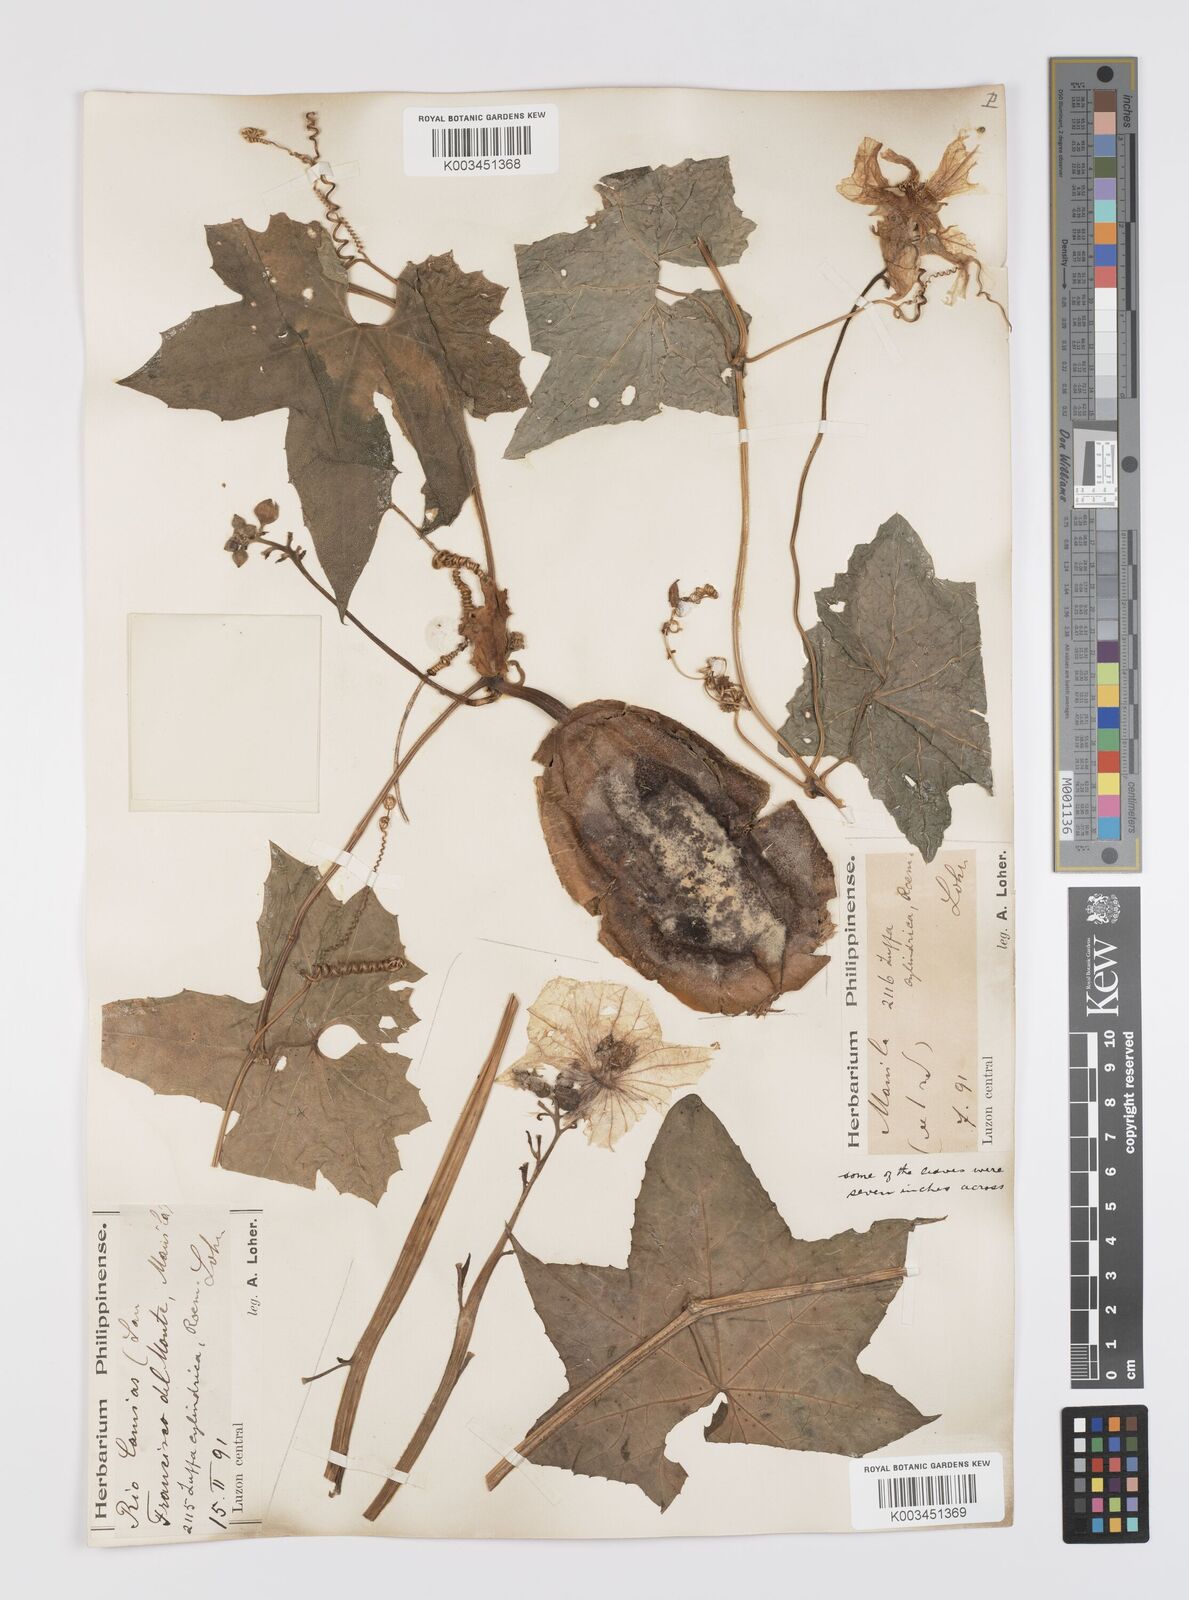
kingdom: Plantae
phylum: Tracheophyta
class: Magnoliopsida
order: Cucurbitales
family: Cucurbitaceae
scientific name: Cucurbitaceae
